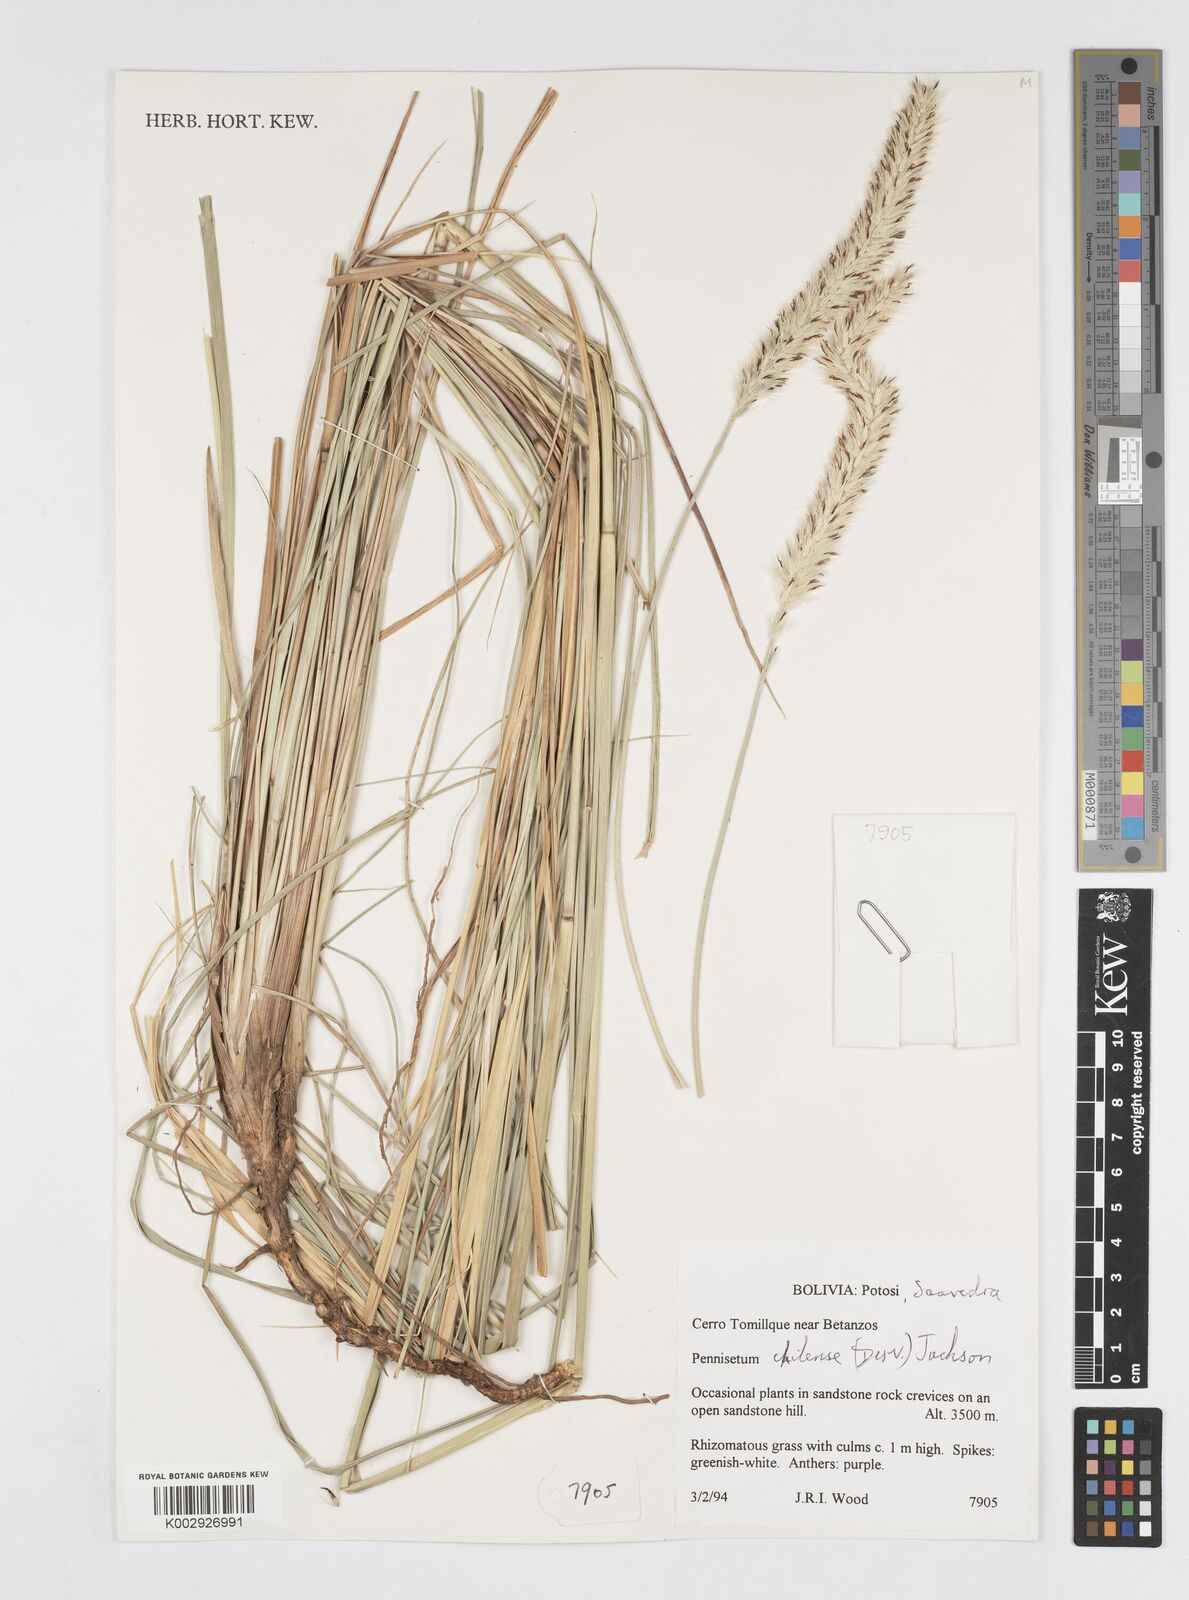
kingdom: Plantae
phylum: Tracheophyta
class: Liliopsida
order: Poales
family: Poaceae
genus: Cenchrus
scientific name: Cenchrus chilensis
